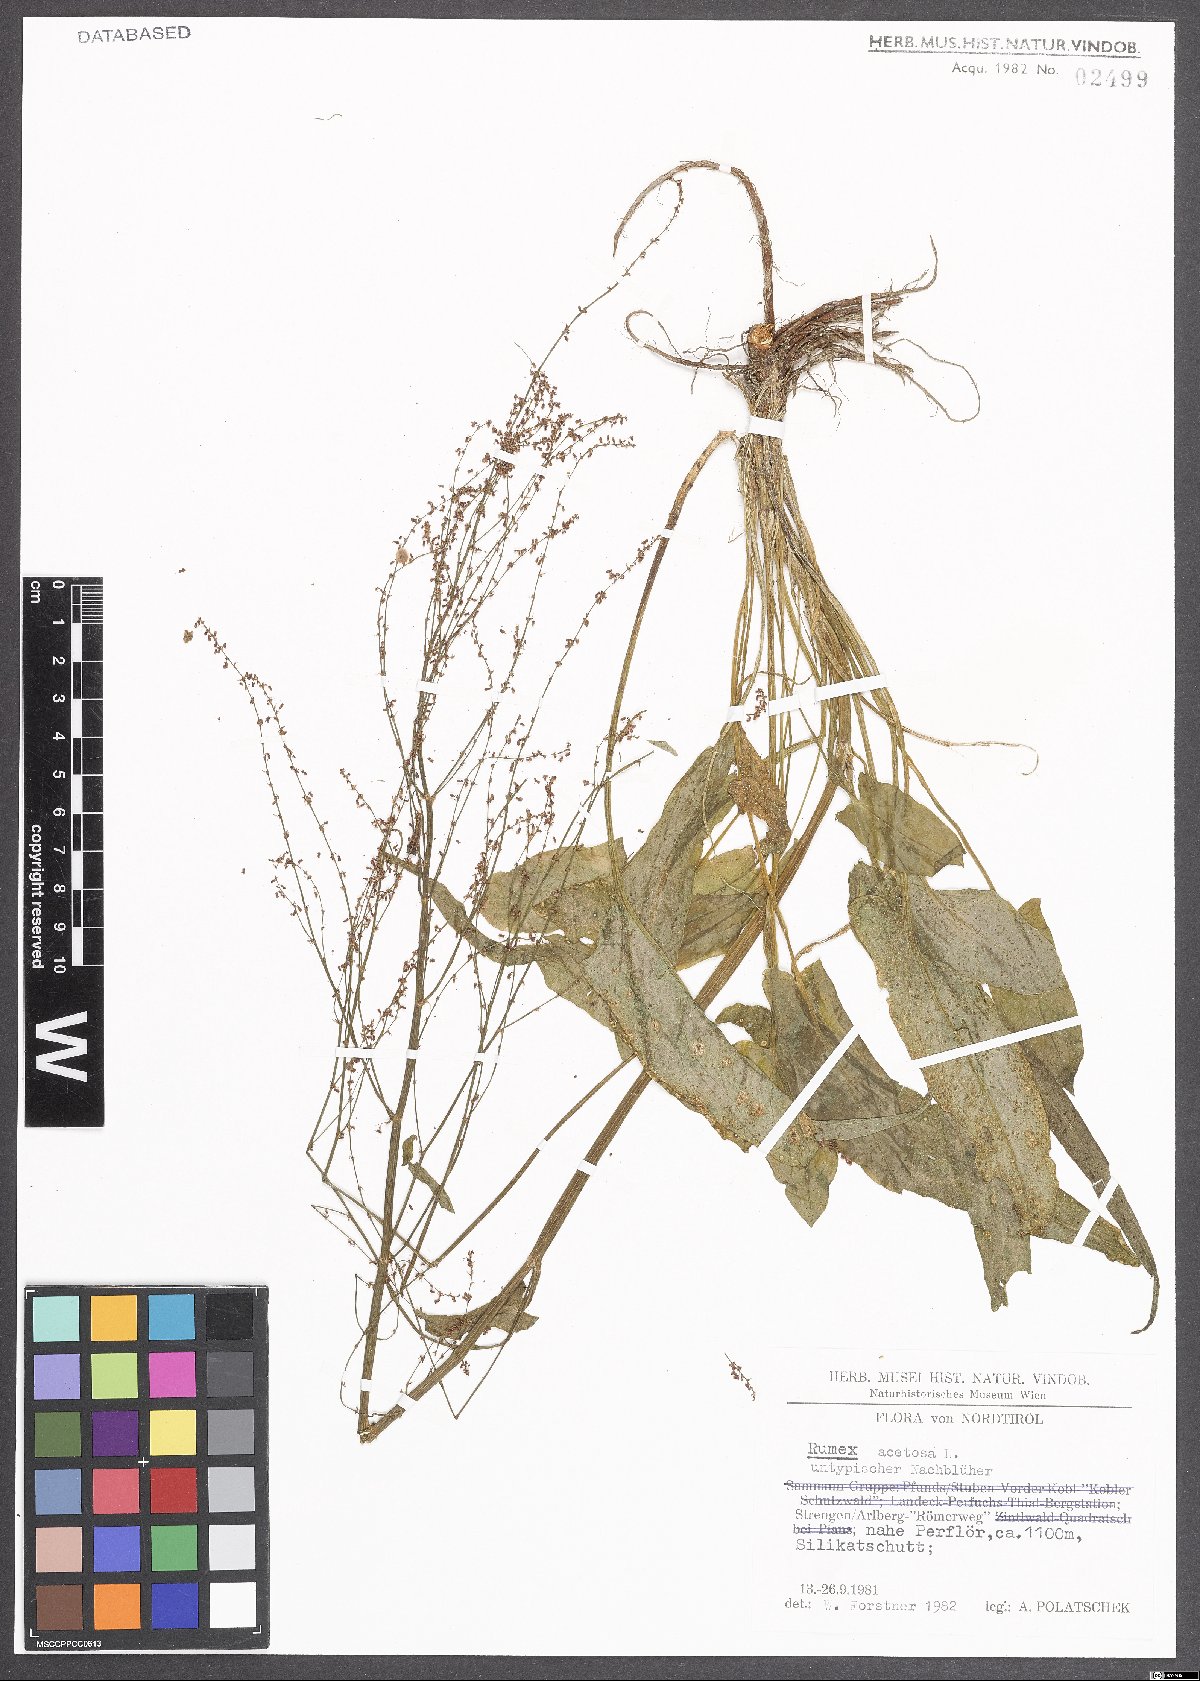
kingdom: Plantae
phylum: Tracheophyta
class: Magnoliopsida
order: Caryophyllales
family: Polygonaceae
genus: Rumex
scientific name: Rumex acetosa
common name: Garden sorrel
